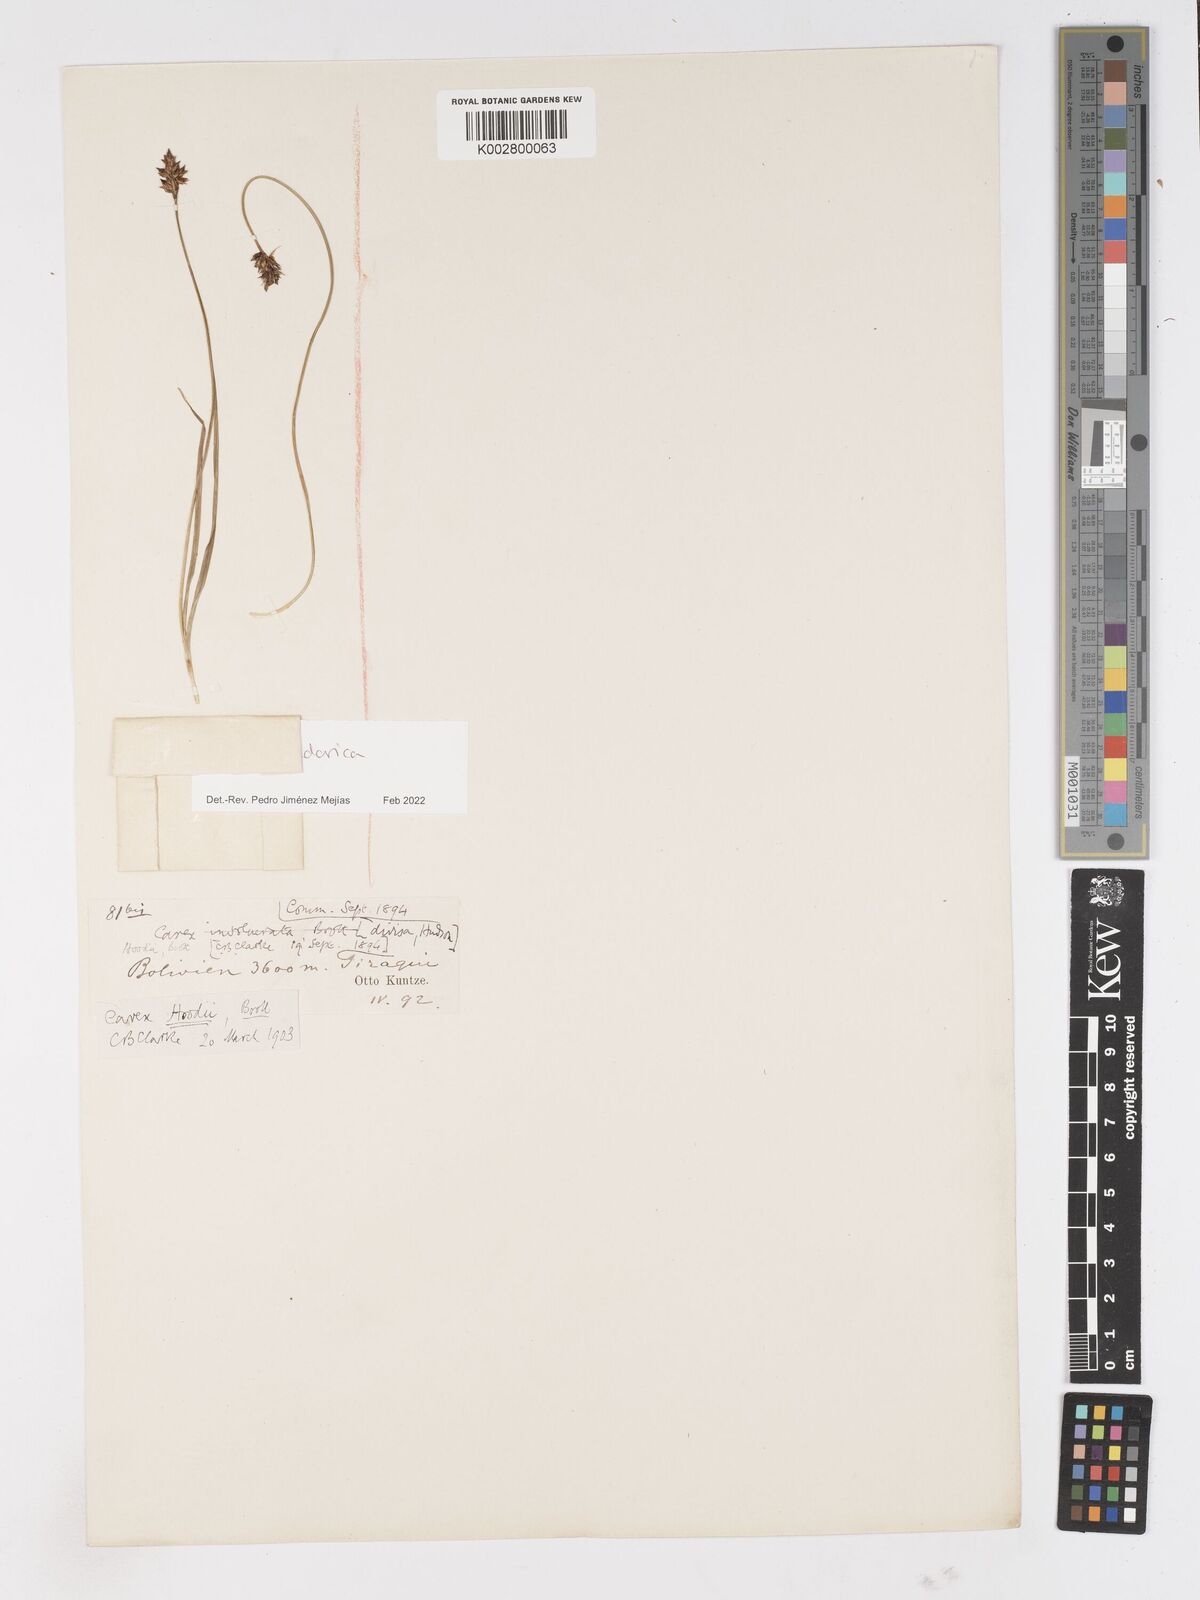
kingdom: Plantae
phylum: Tracheophyta
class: Liliopsida
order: Poales
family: Cyperaceae
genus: Carex
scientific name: Carex ecuadorica
